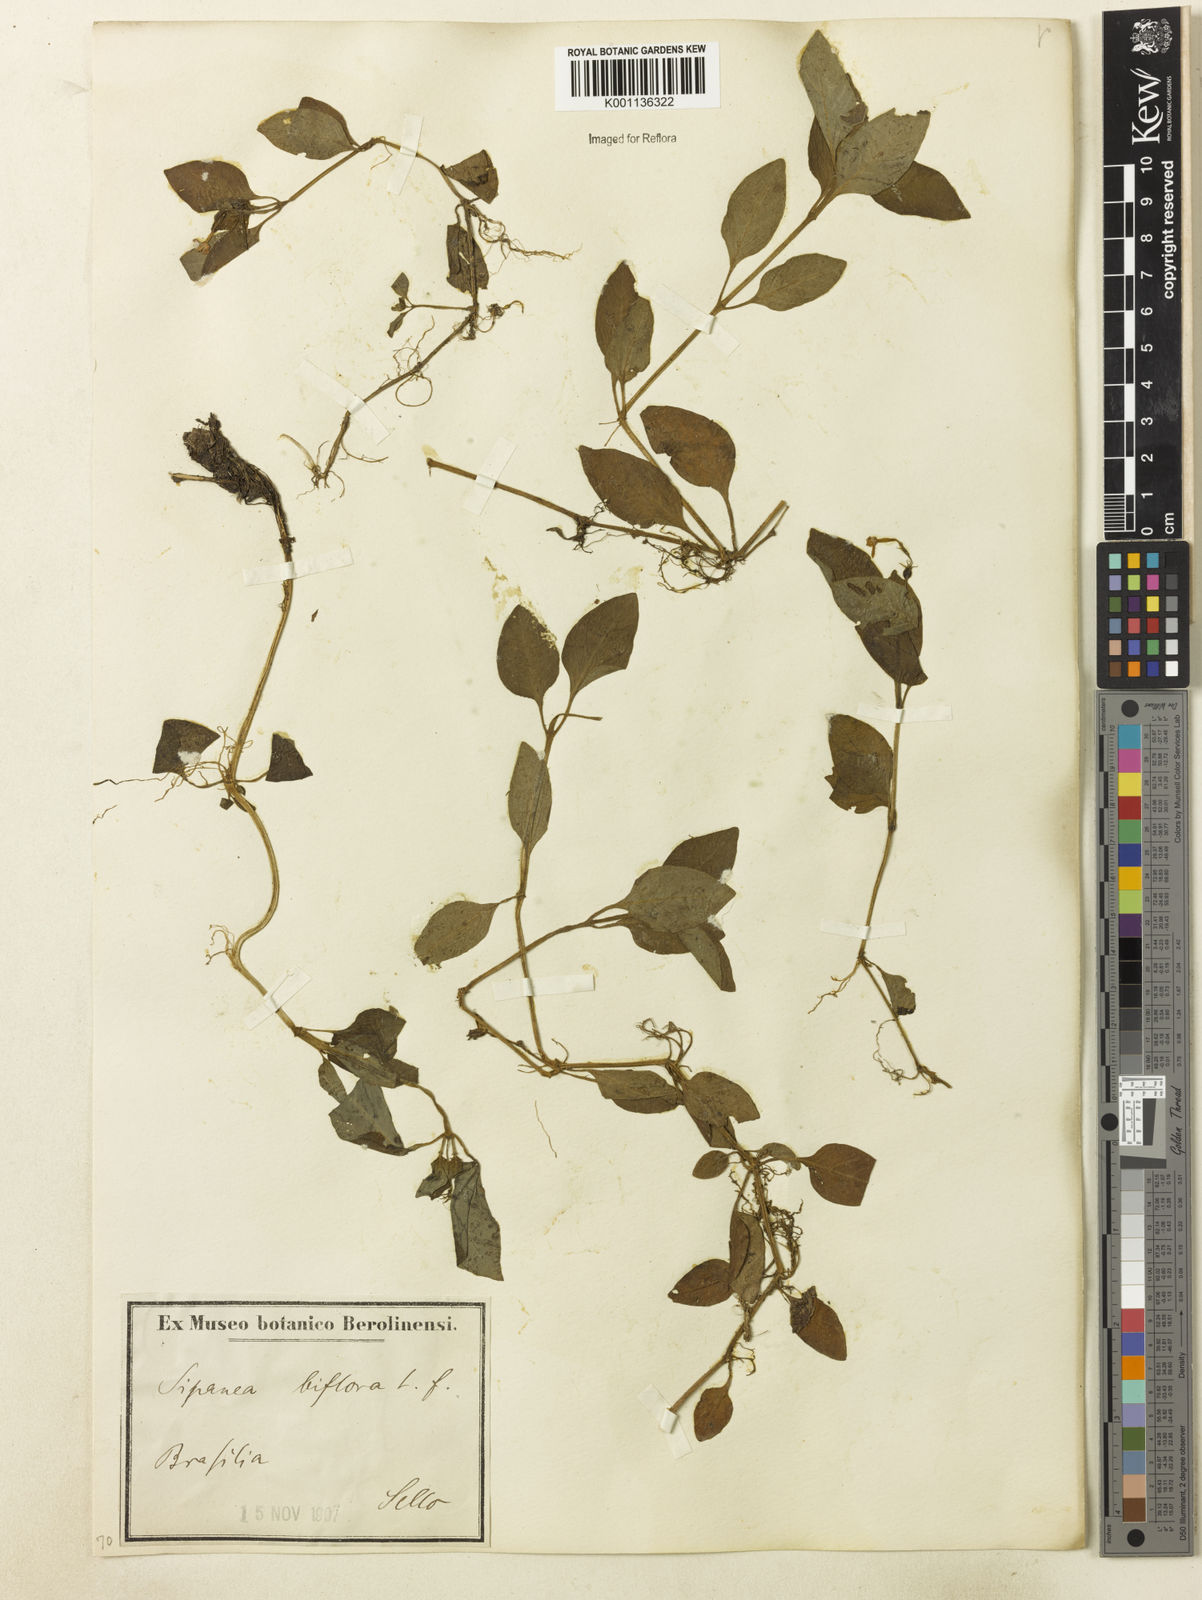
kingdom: Plantae
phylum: Tracheophyta
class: Magnoliopsida
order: Gentianales
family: Rubiaceae
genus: Sipanea
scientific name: Sipanea biflora
